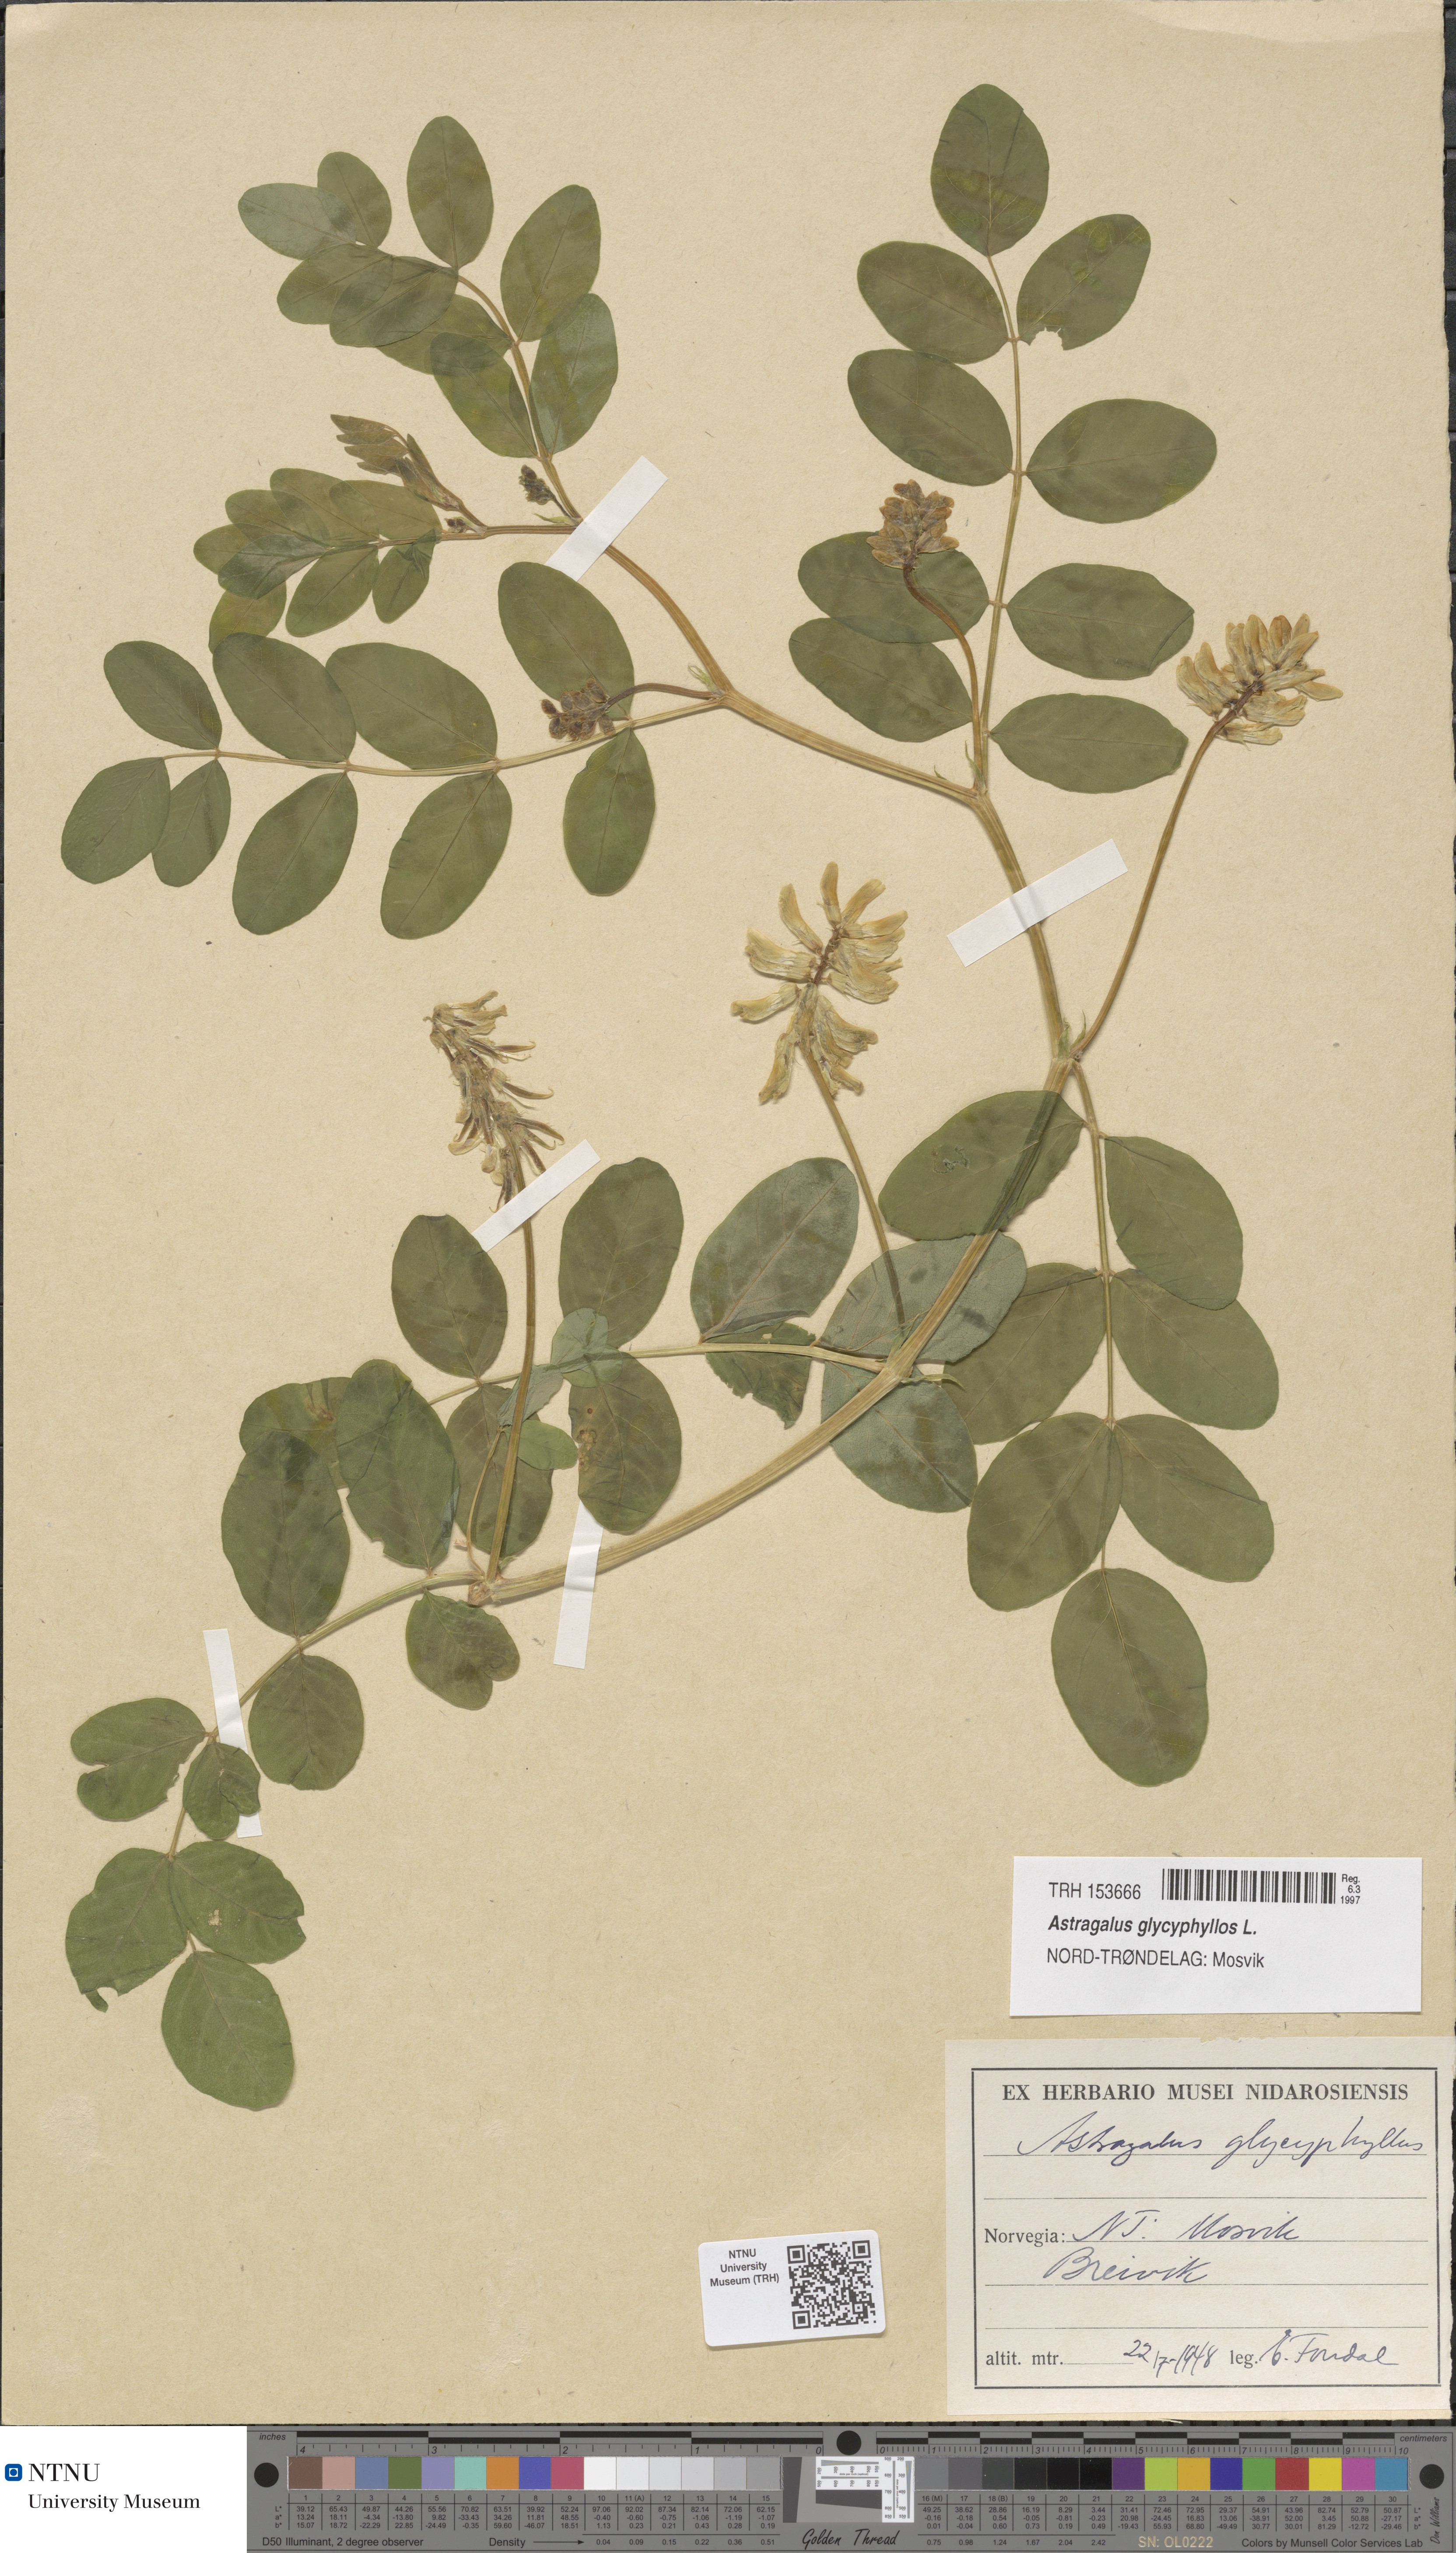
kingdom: Plantae
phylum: Tracheophyta
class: Magnoliopsida
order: Fabales
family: Fabaceae
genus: Astragalus
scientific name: Astragalus glycyphyllos
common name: Wild liquorice
